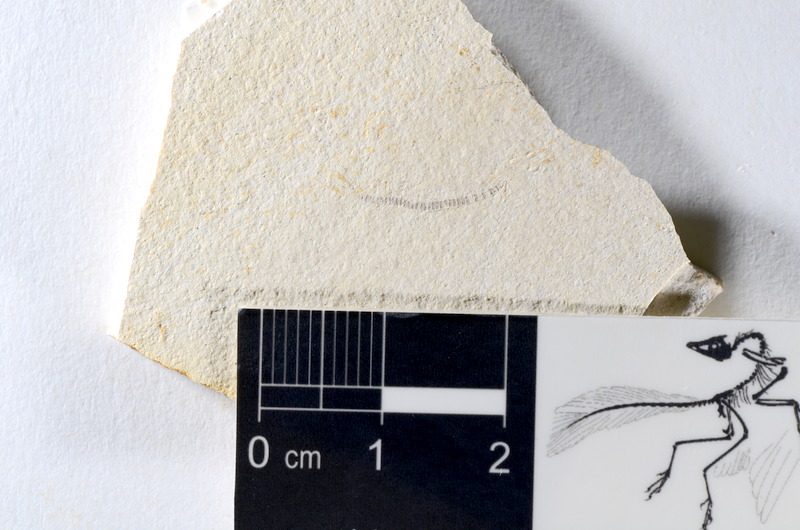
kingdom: Animalia
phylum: Chordata
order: Salmoniformes
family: Orthogonikleithridae
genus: Orthogonikleithrus
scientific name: Orthogonikleithrus hoelli
